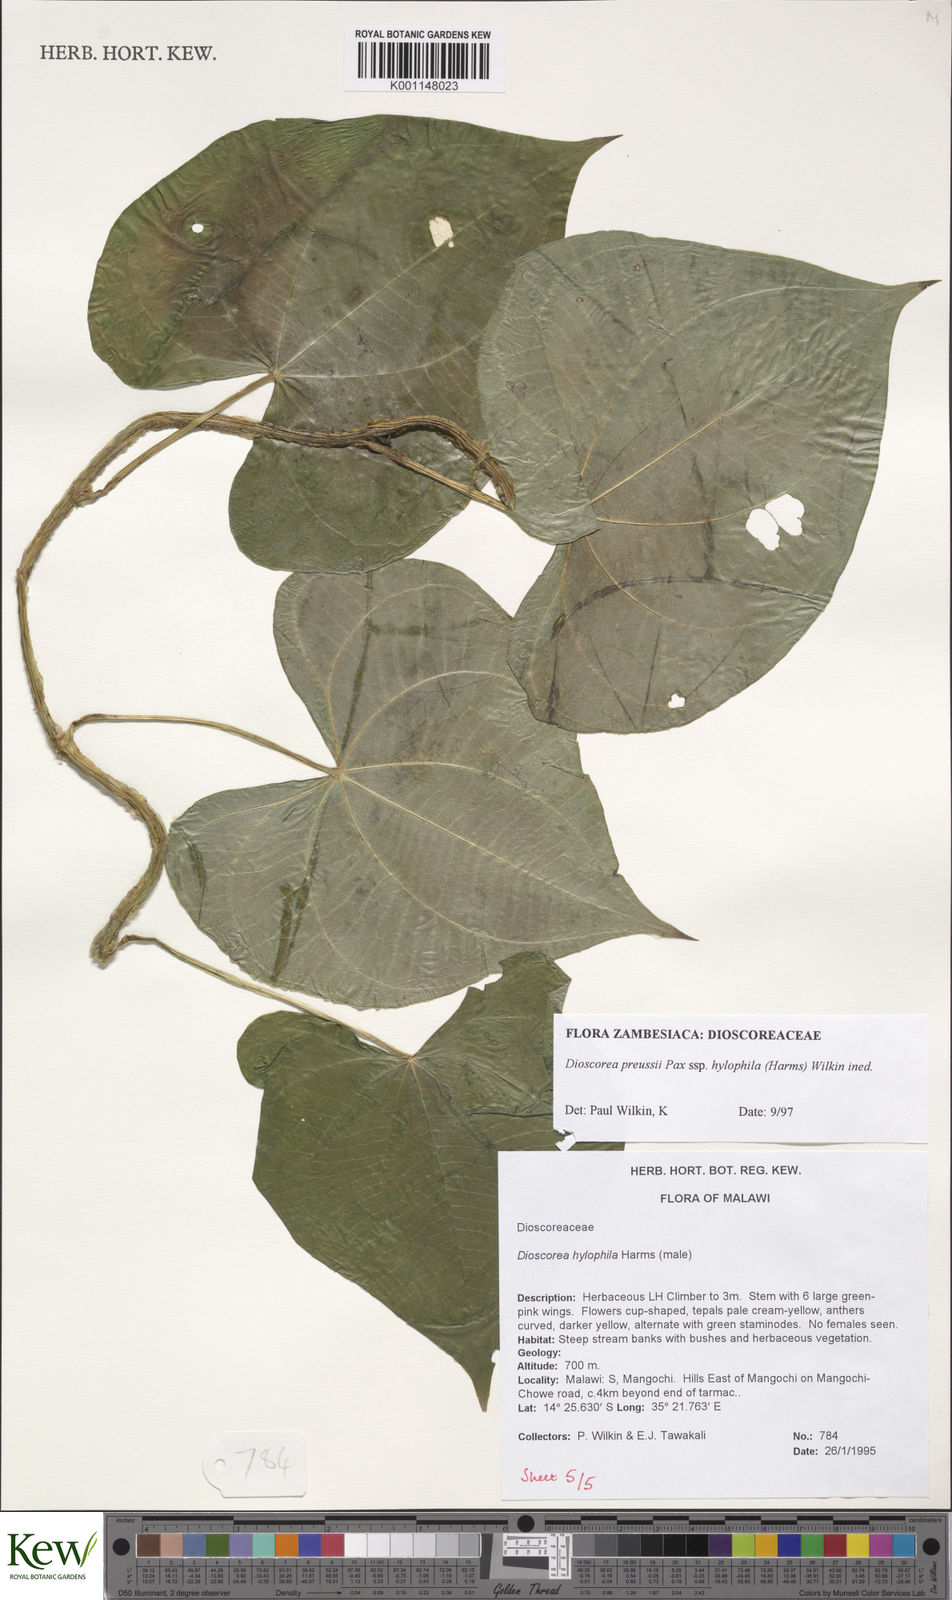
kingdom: Plantae
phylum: Tracheophyta
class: Liliopsida
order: Dioscoreales
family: Dioscoreaceae
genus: Dioscorea
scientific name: Dioscorea preussii
